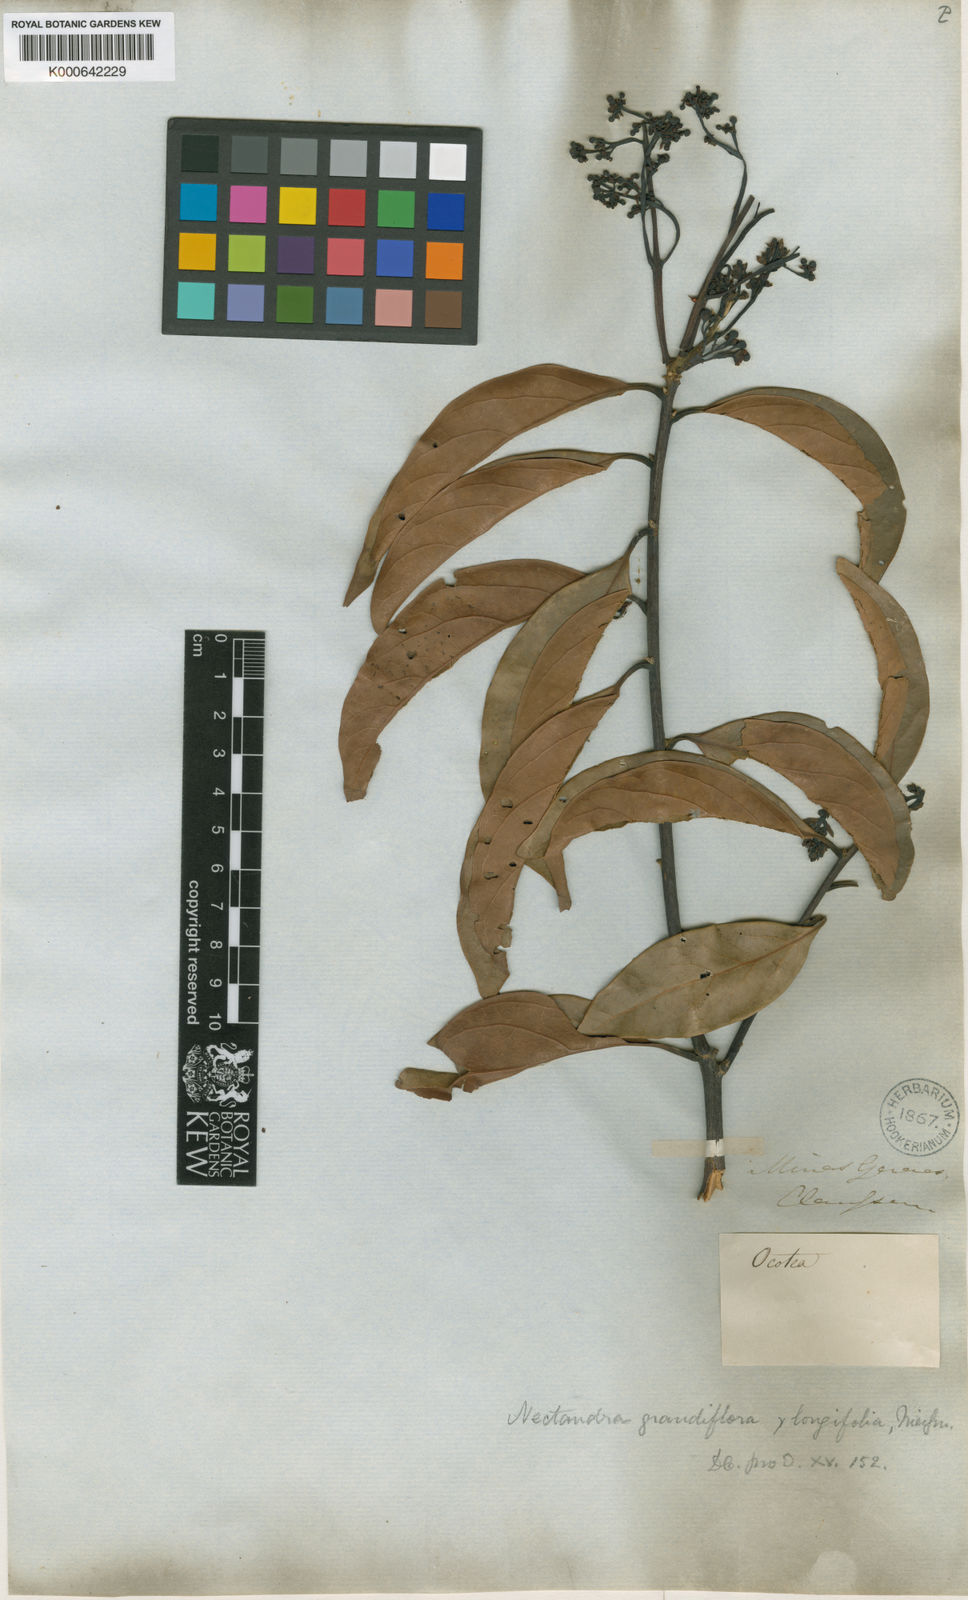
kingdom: Plantae
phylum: Tracheophyta
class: Magnoliopsida
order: Laurales
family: Lauraceae
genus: Nectandra
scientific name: Nectandra grandiflora
